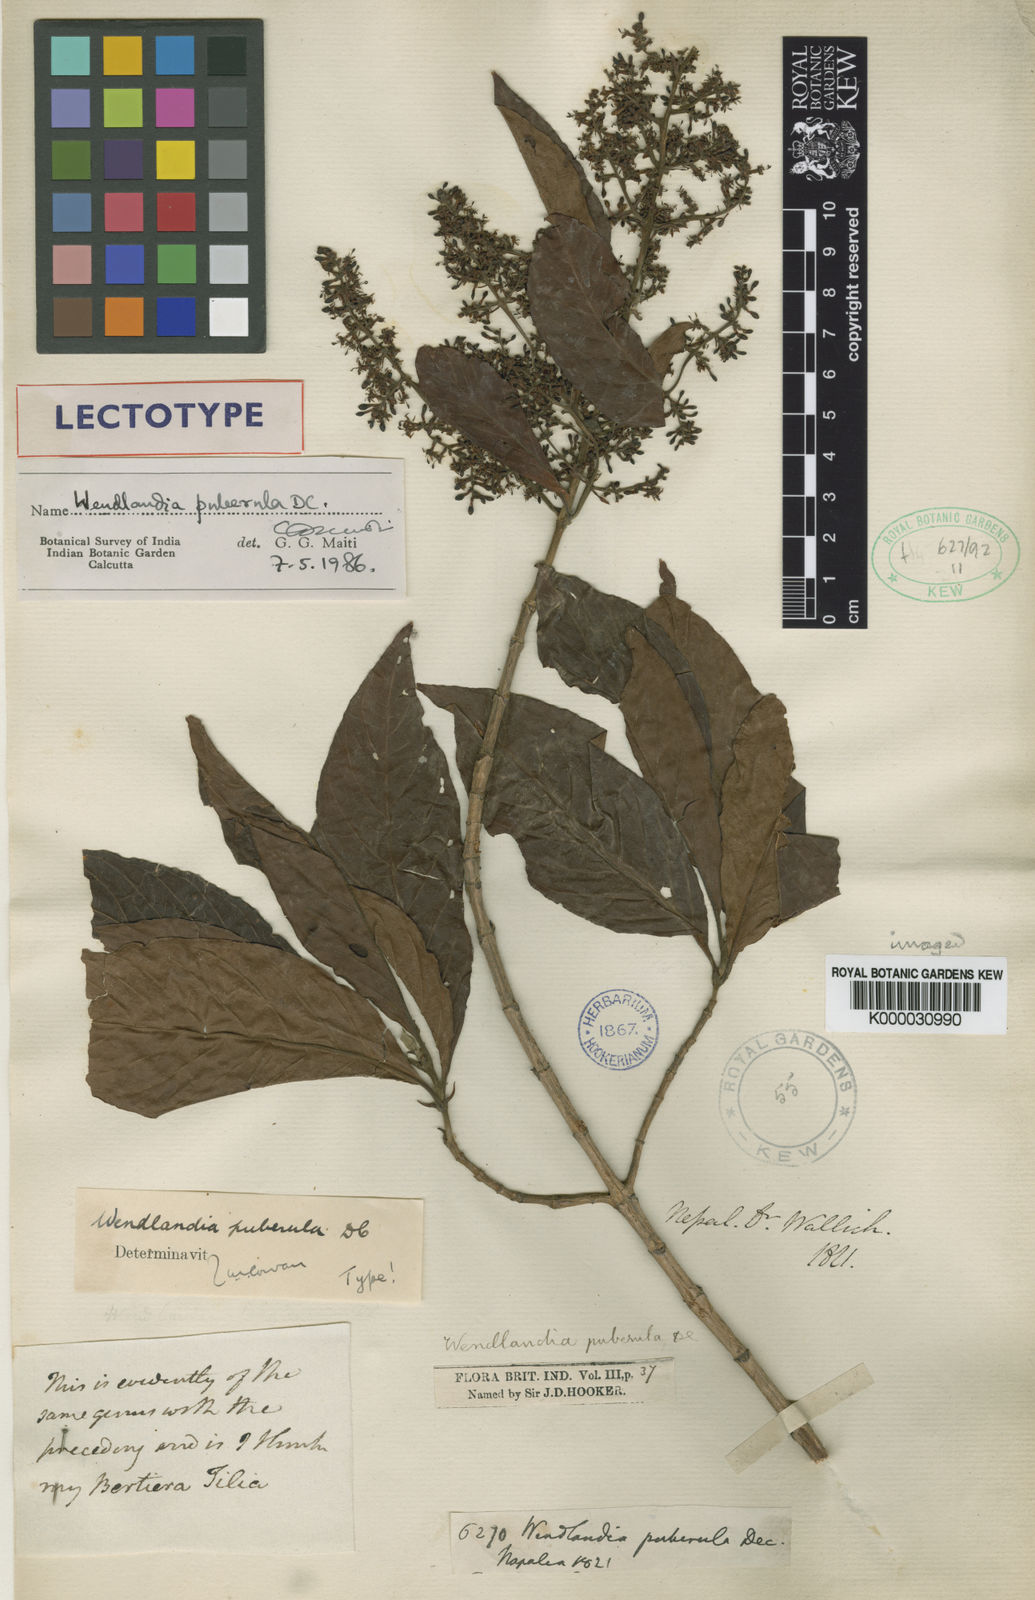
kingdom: Plantae
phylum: Tracheophyta
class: Magnoliopsida
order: Gentianales
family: Rubiaceae
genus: Wendlandia
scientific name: Wendlandia puberula
